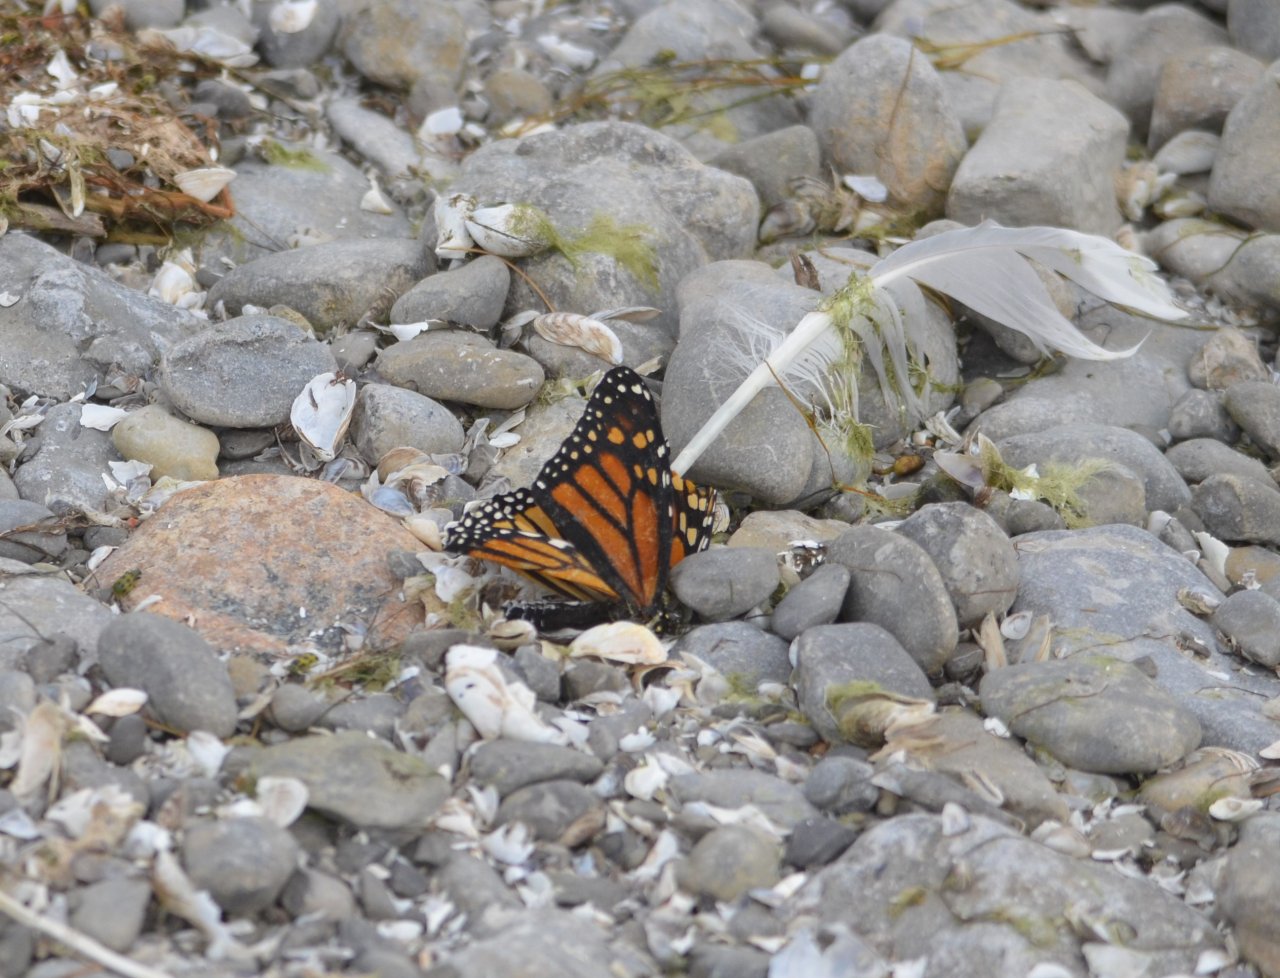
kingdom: Animalia
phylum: Arthropoda
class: Insecta
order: Lepidoptera
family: Nymphalidae
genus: Danaus
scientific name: Danaus plexippus
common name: Monarch
